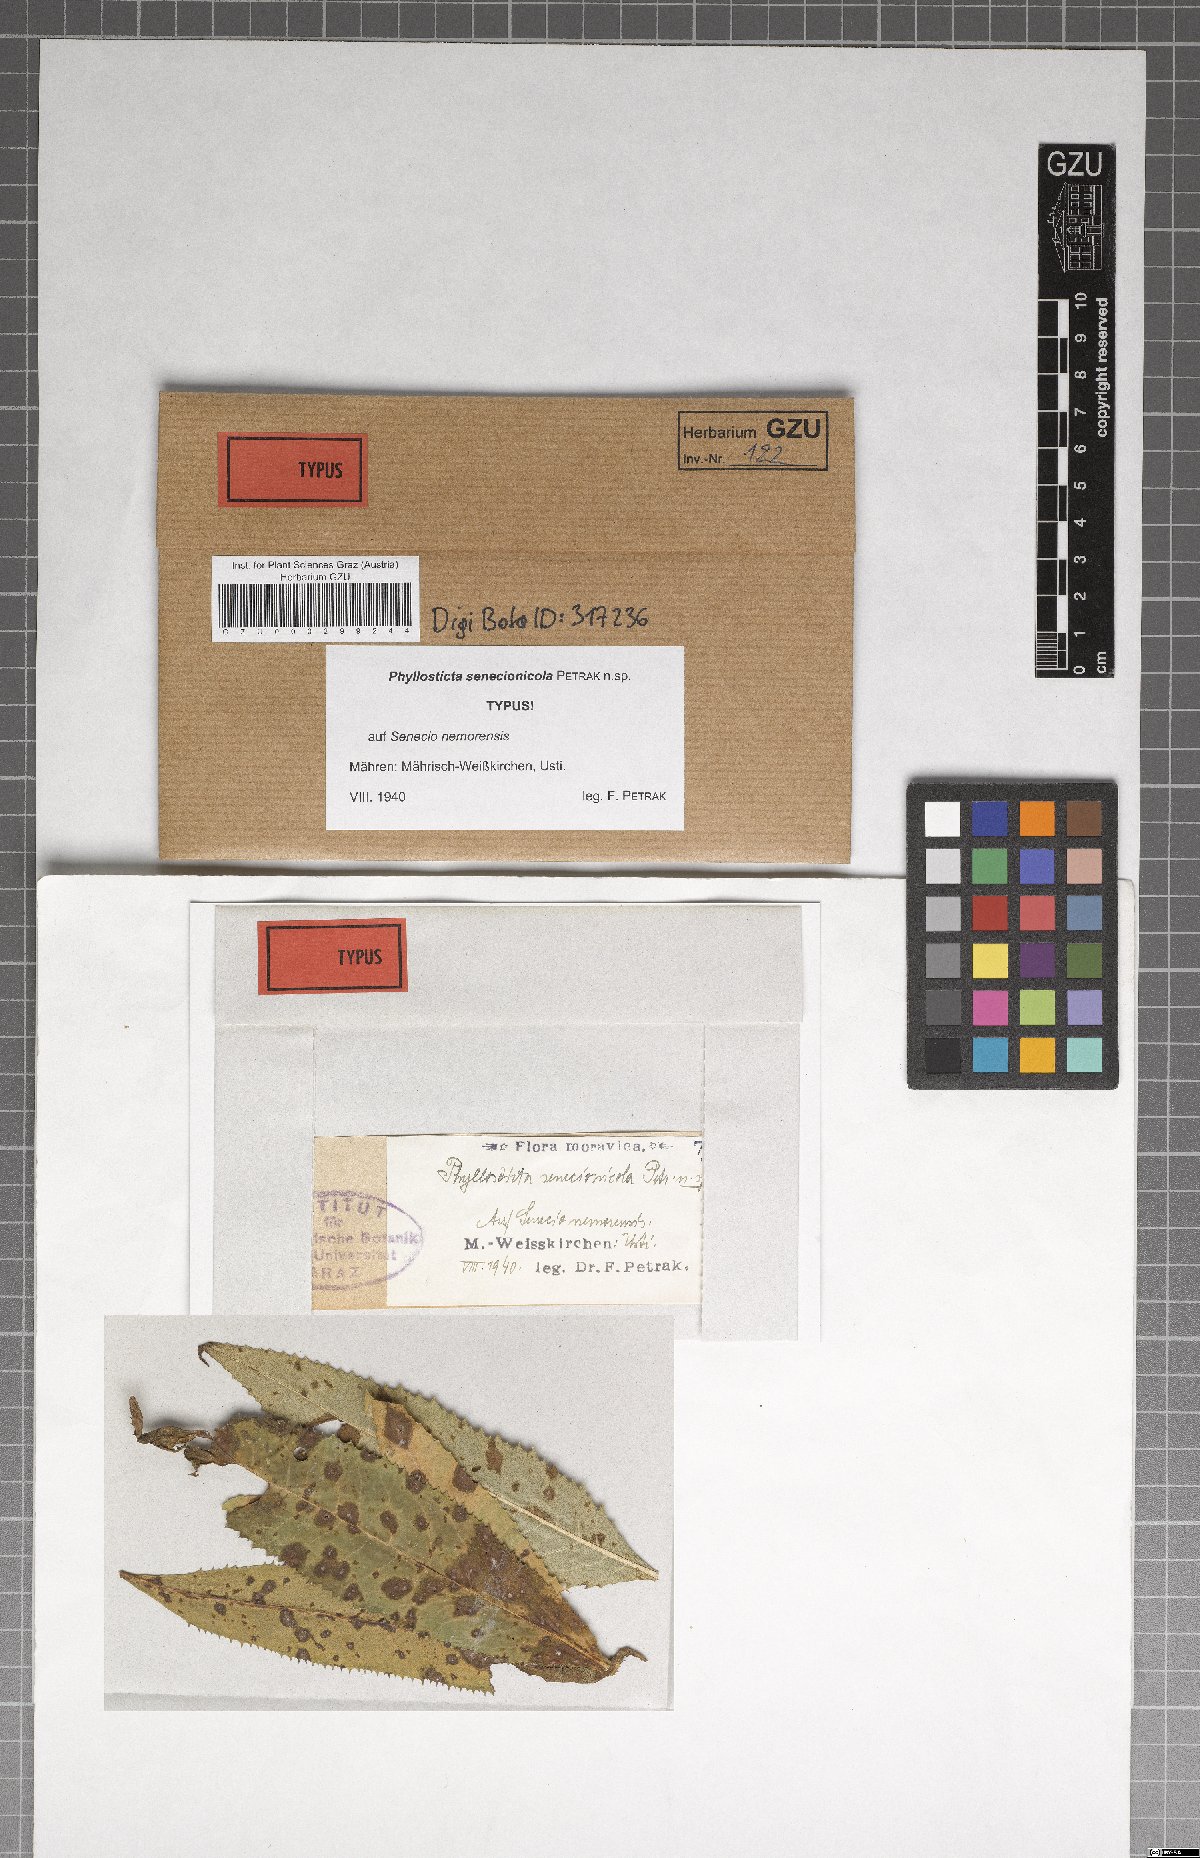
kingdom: Fungi
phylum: Ascomycota
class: Dothideomycetes
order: Botryosphaeriales
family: Phyllostictaceae
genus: Phyllosticta
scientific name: Phyllosticta senecionicola
